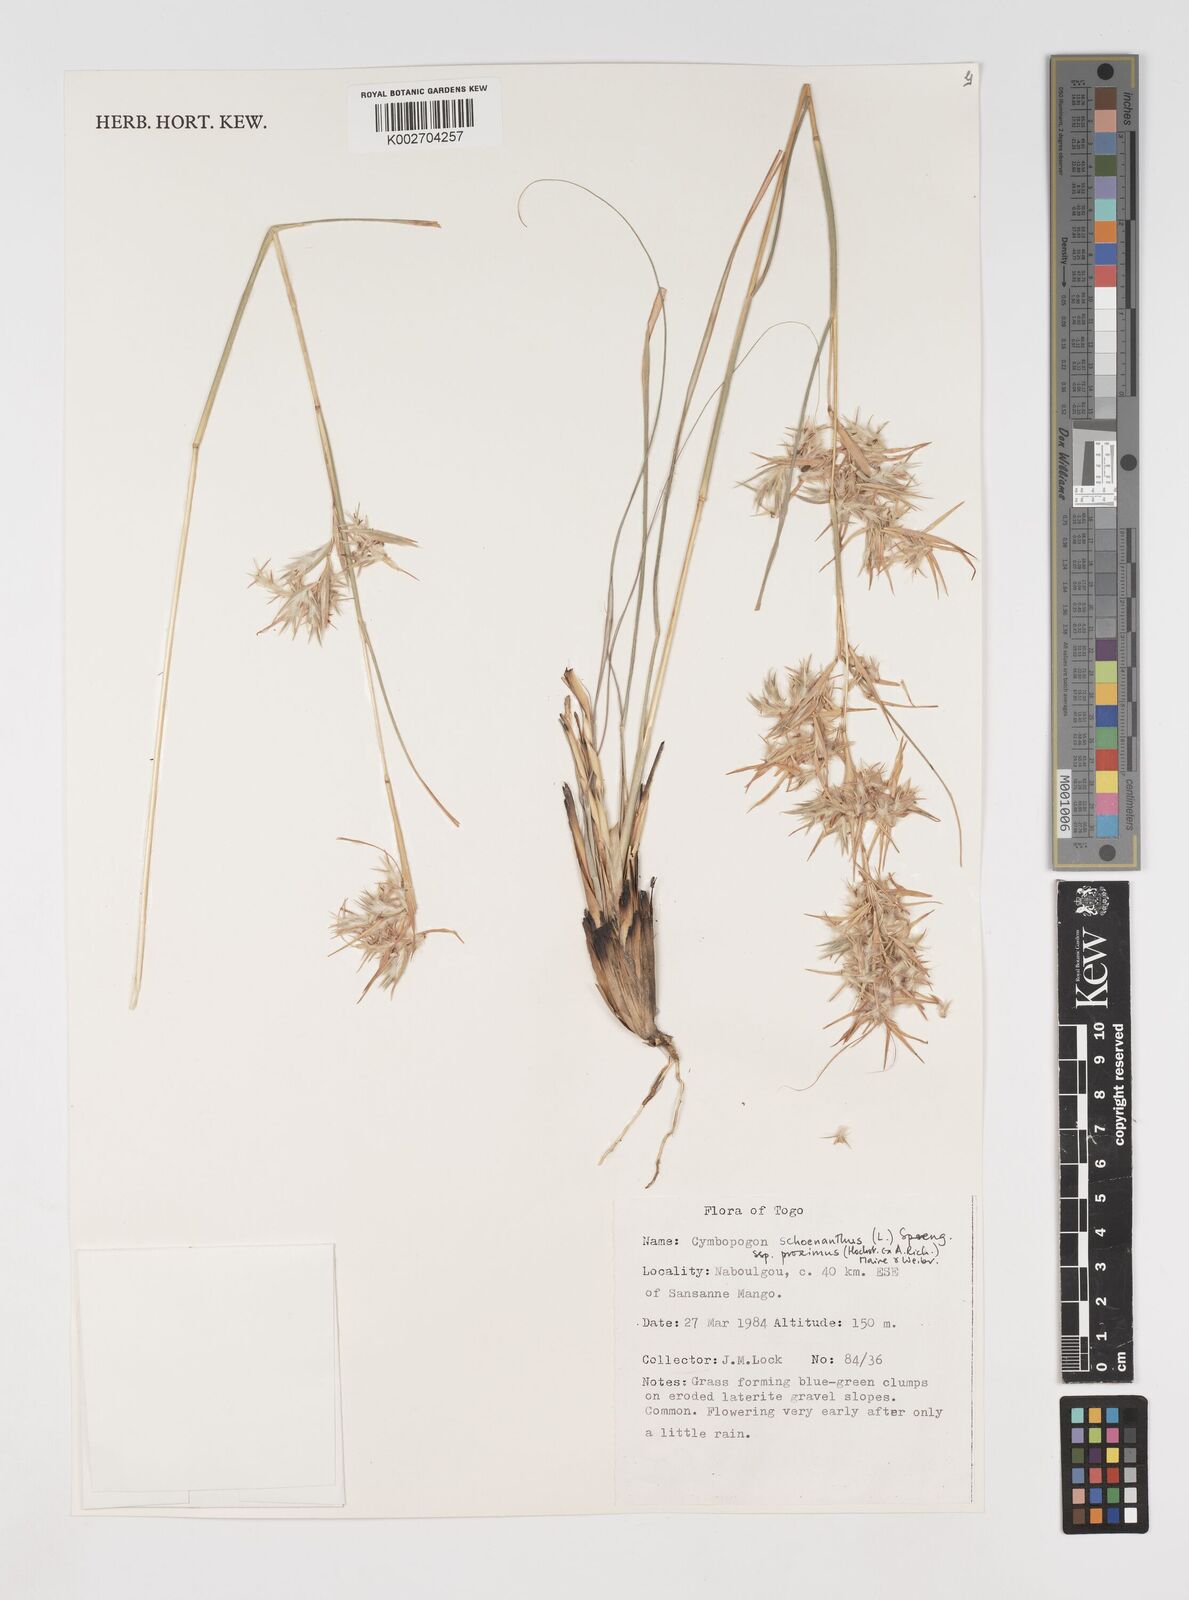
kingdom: Plantae
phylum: Tracheophyta
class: Liliopsida
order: Poales
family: Poaceae
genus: Cymbopogon
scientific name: Cymbopogon schoenanthus
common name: Geranium grass
